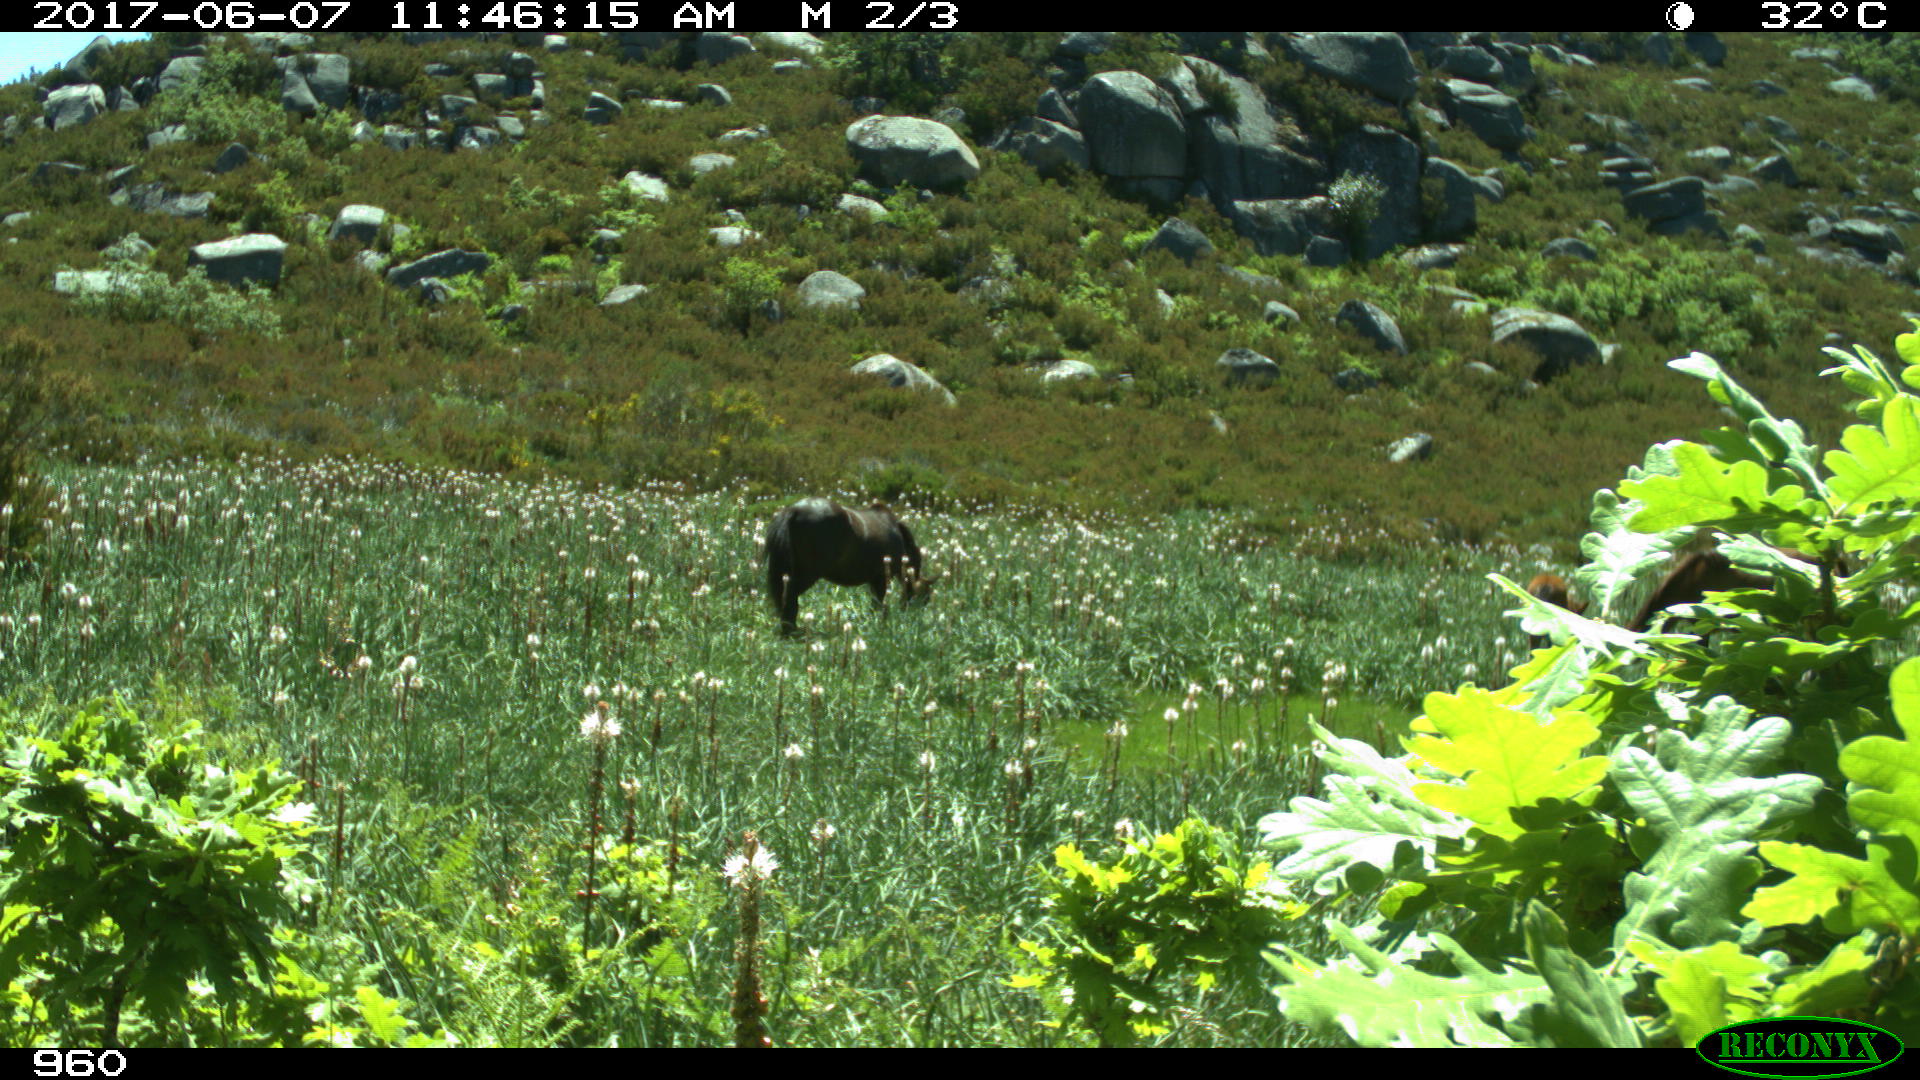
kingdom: Animalia
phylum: Chordata
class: Mammalia
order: Perissodactyla
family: Equidae
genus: Equus
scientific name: Equus caballus
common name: Horse
